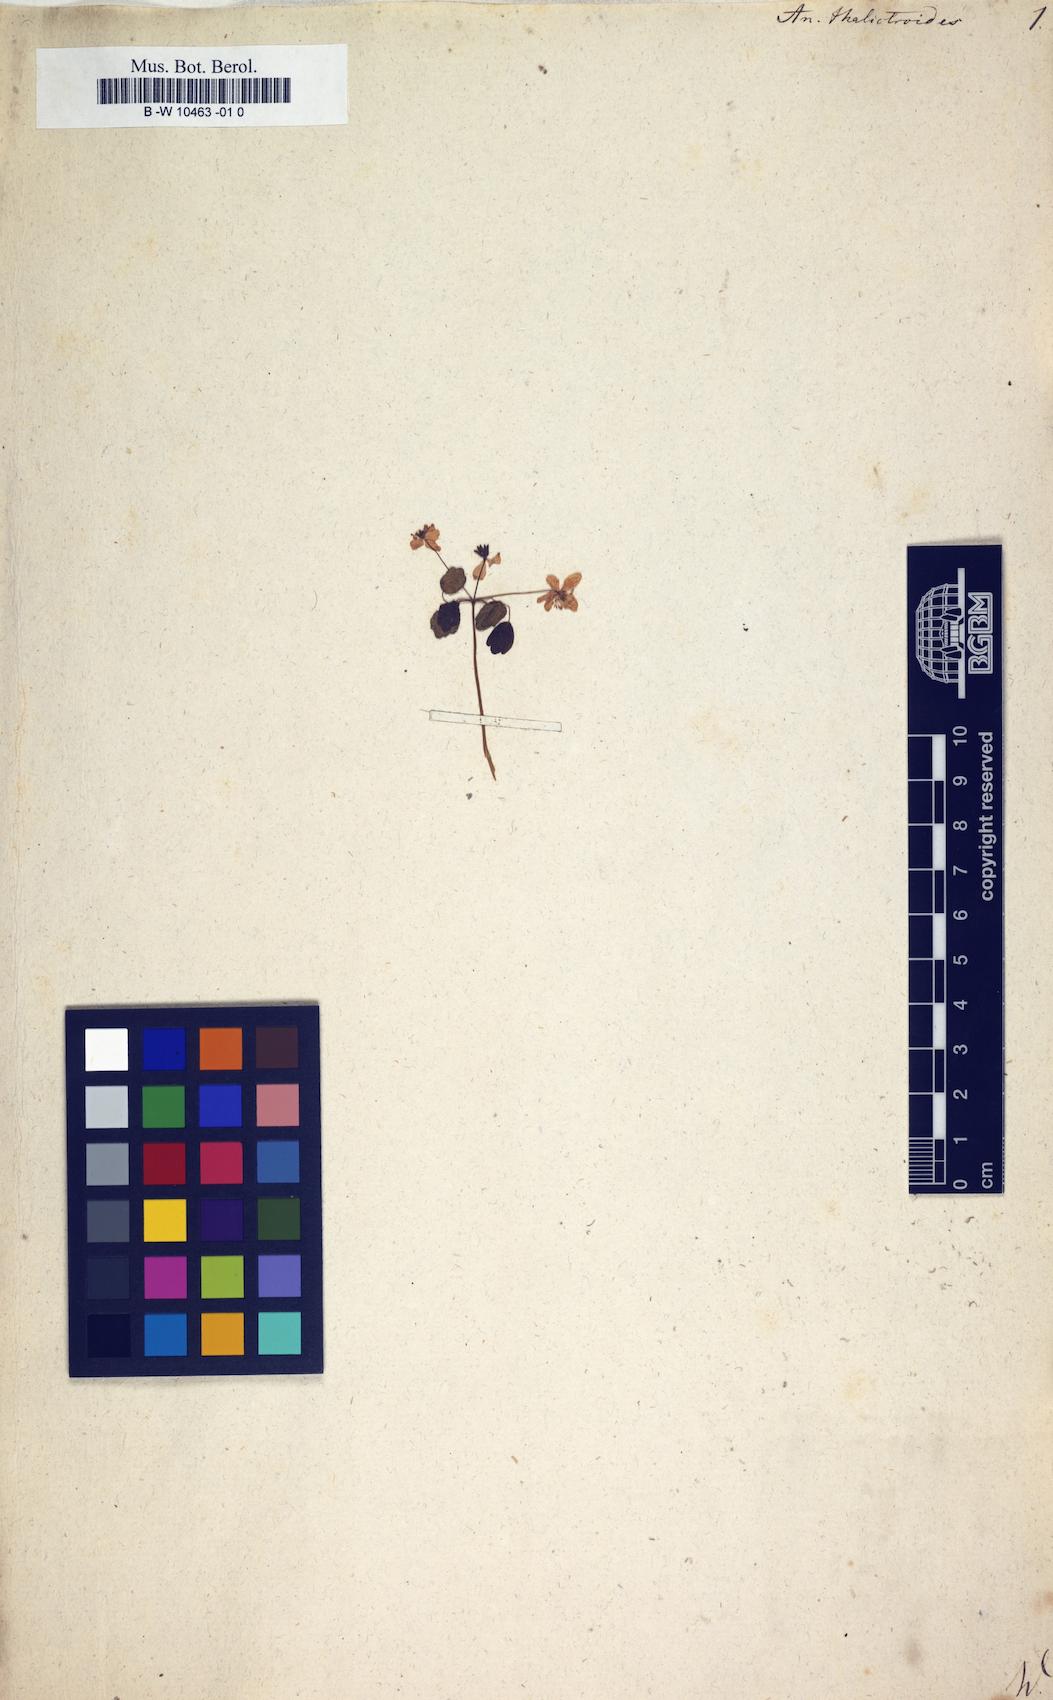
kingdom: Plantae
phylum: Tracheophyta
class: Magnoliopsida
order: Ranunculales
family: Ranunculaceae
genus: Thalictrum
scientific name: Thalictrum thalictroides
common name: Rue-anemone
